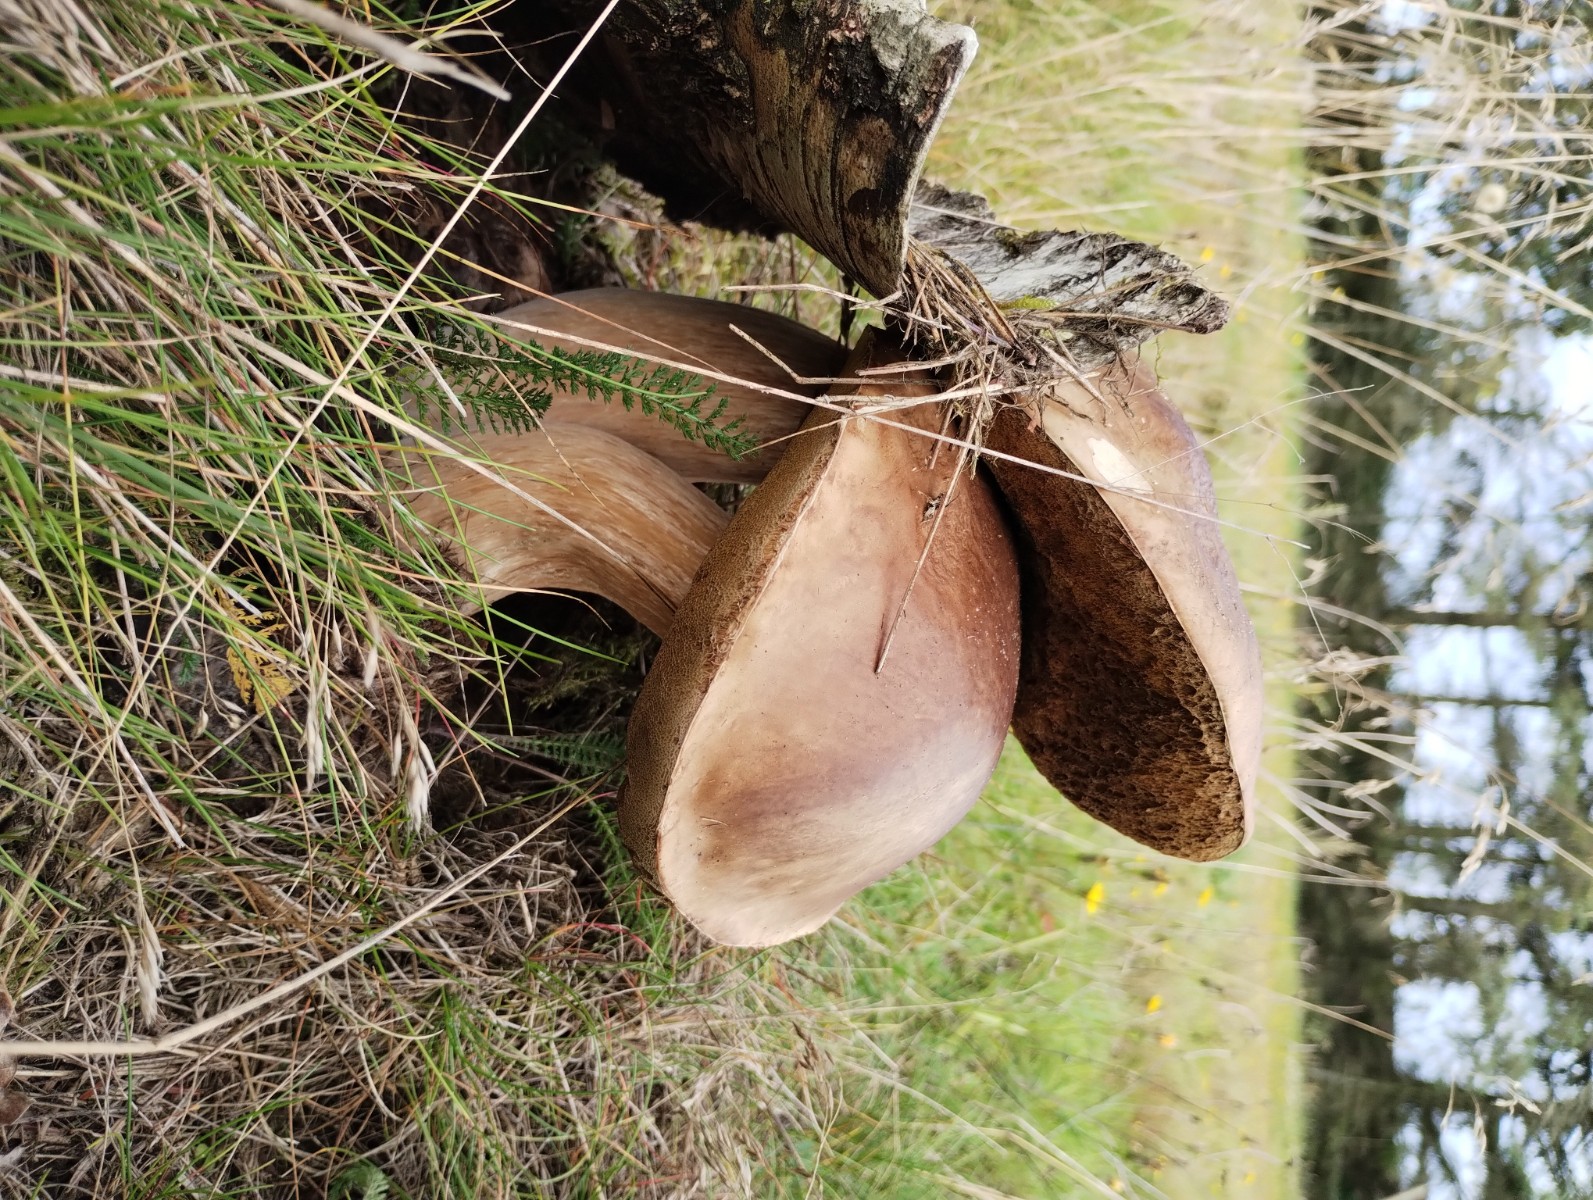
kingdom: Fungi
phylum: Basidiomycota
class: Agaricomycetes
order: Boletales
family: Boletaceae
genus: Boletus
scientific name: Boletus edulis
